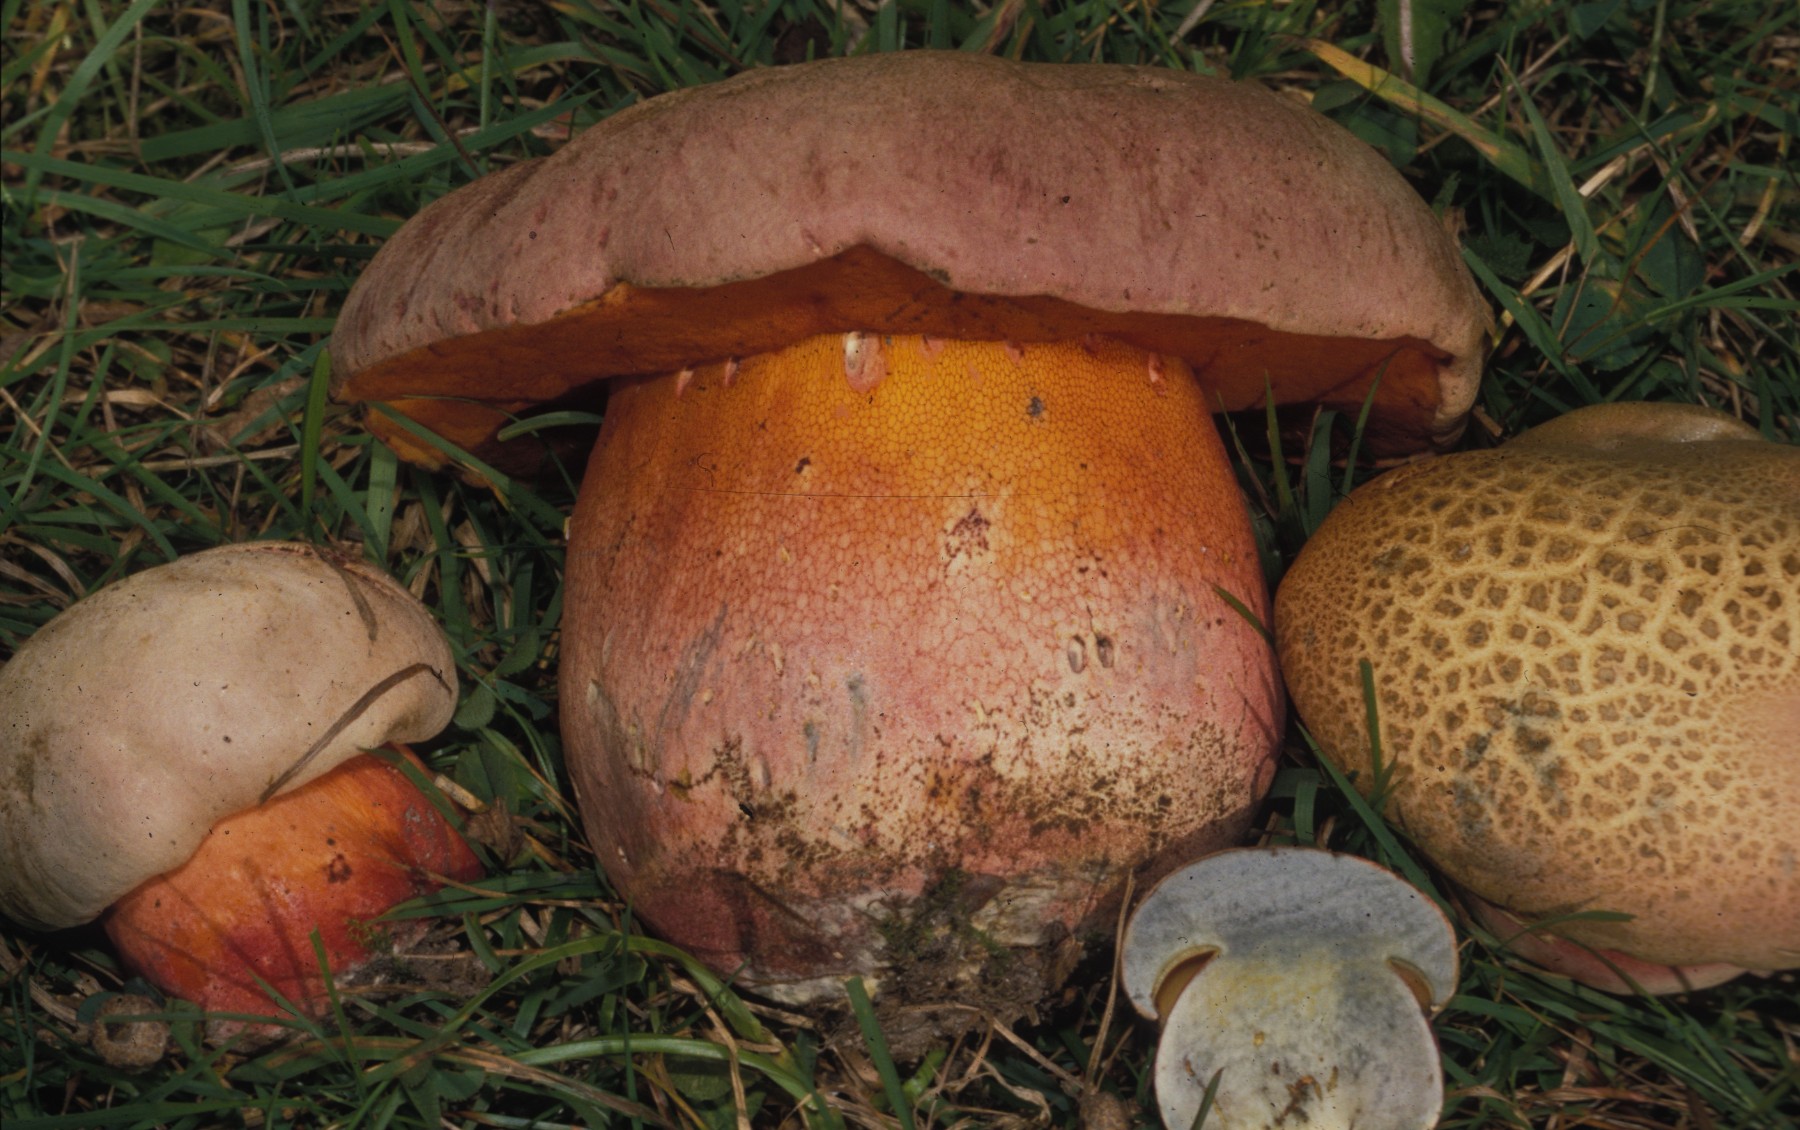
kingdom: Fungi
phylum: Basidiomycota
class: Agaricomycetes
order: Boletales
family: Boletaceae
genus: Rubroboletus
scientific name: Rubroboletus legaliae
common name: djævle-rørhat
